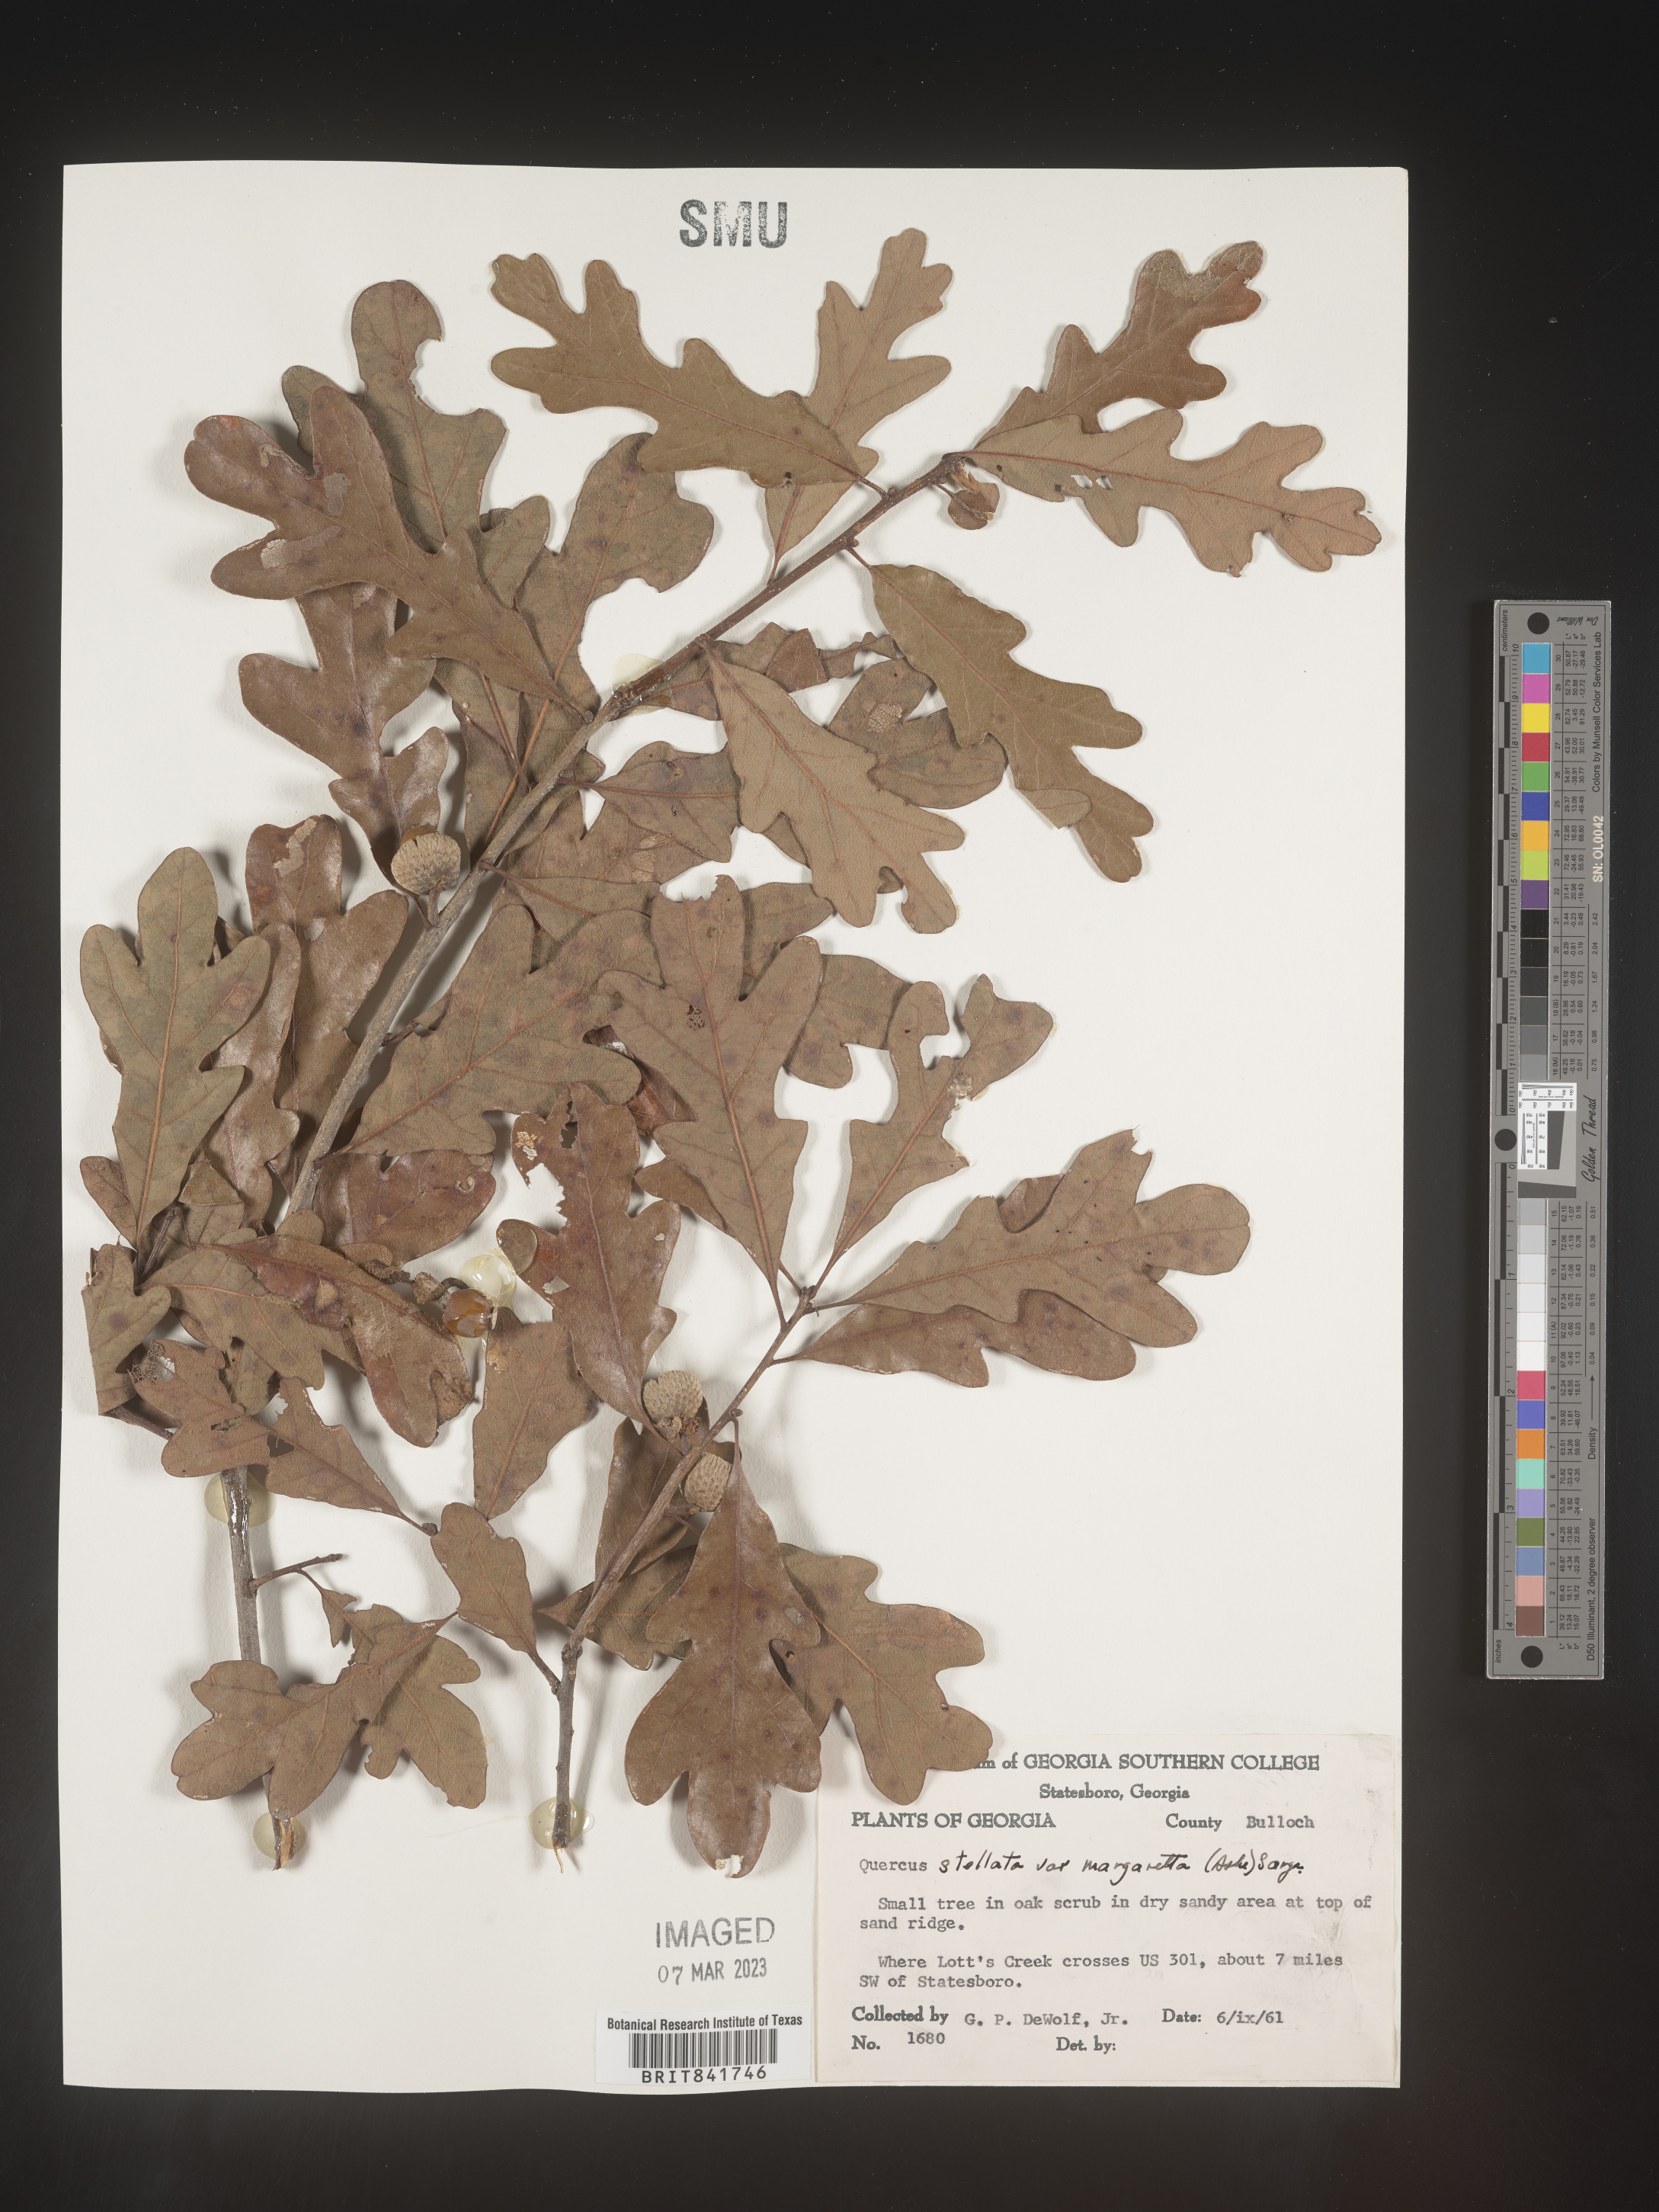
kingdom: Plantae
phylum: Tracheophyta
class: Magnoliopsida
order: Fagales
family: Fagaceae
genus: Quercus
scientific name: Quercus stellata
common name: Post oak
